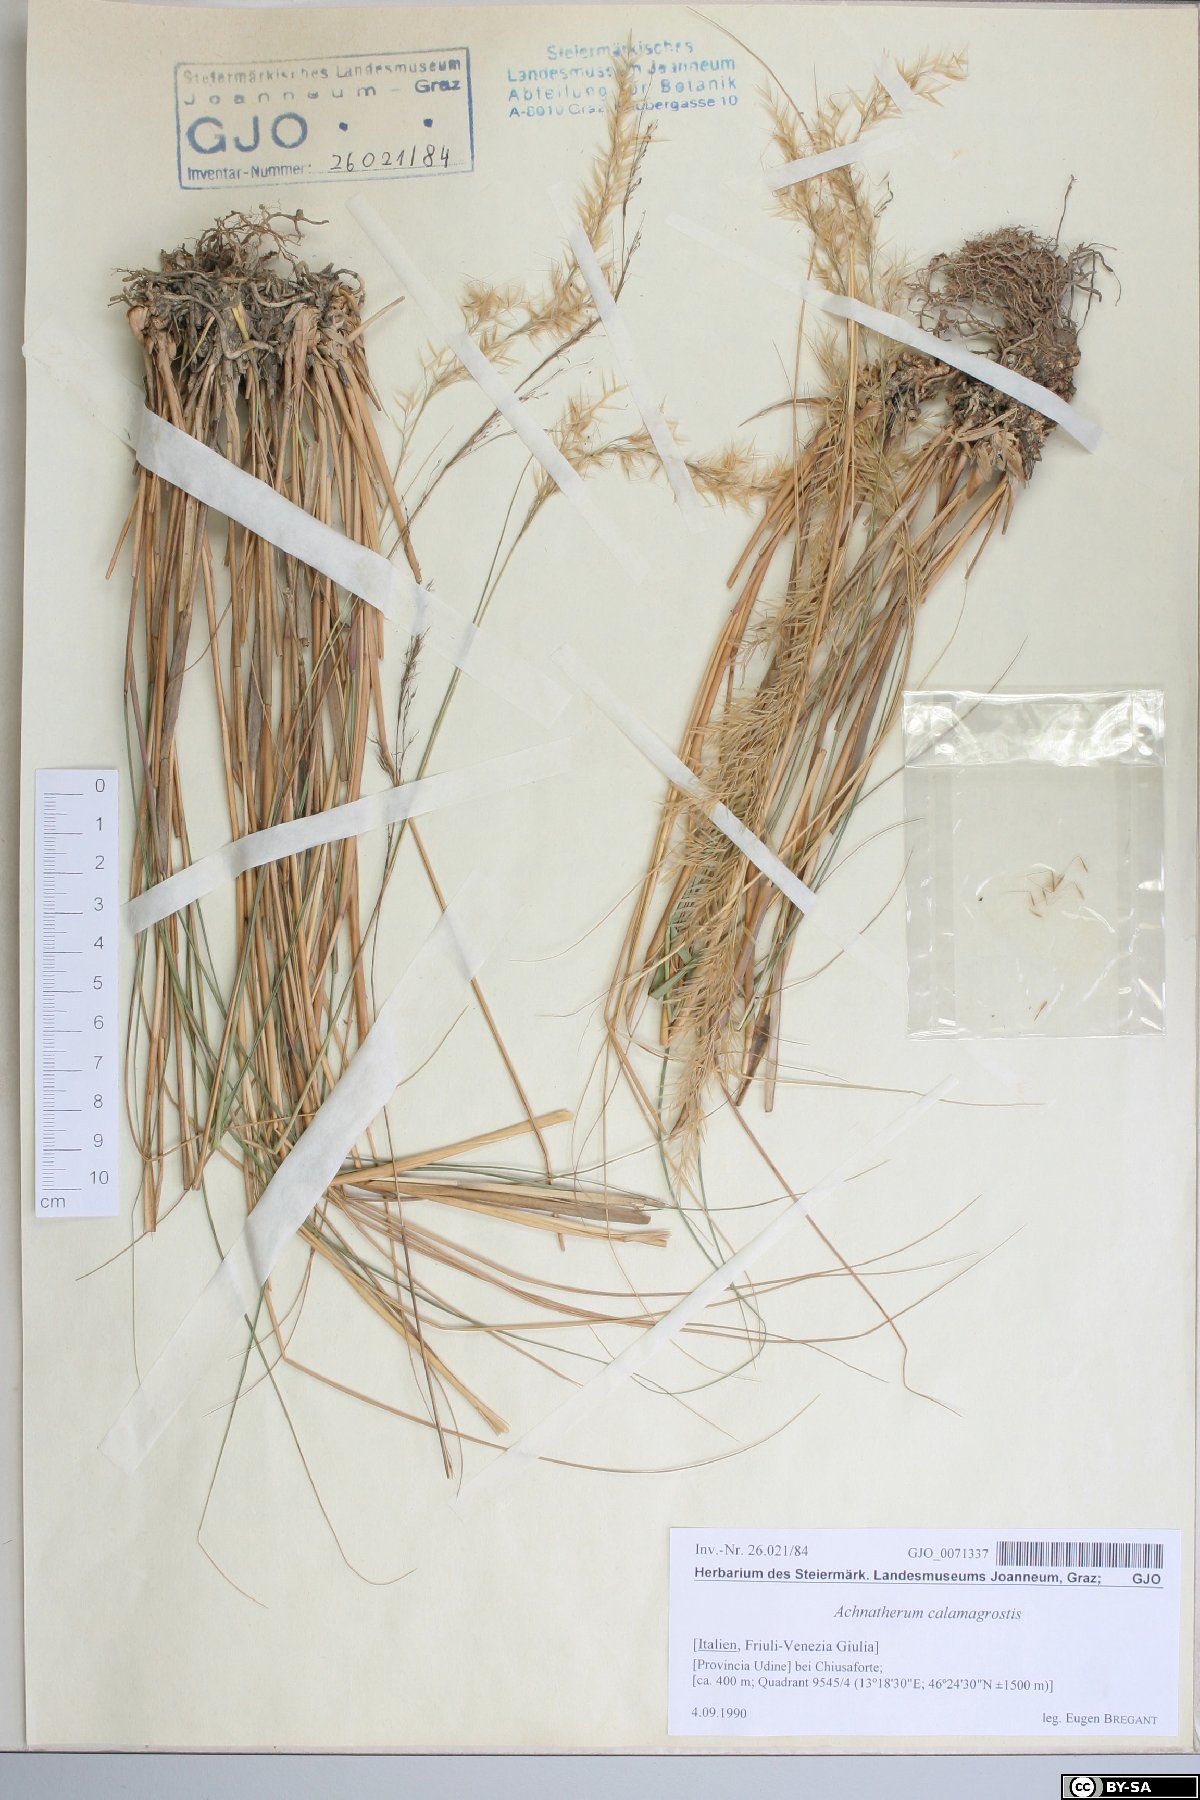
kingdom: Plantae
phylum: Tracheophyta
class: Liliopsida
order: Poales
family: Poaceae
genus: Achnatherum
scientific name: Achnatherum calamagrostis
